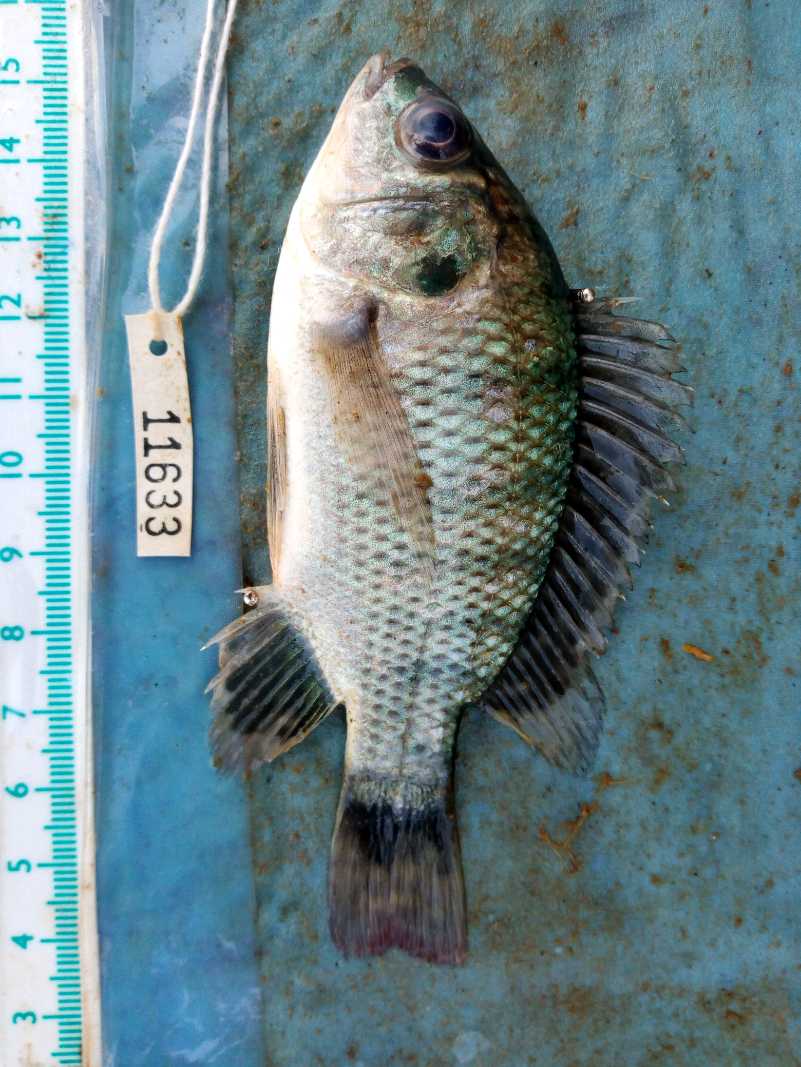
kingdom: Animalia
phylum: Chordata
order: Perciformes
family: Cichlidae
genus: Oreochromis
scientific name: Oreochromis niloticus
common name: Nile tilapia
